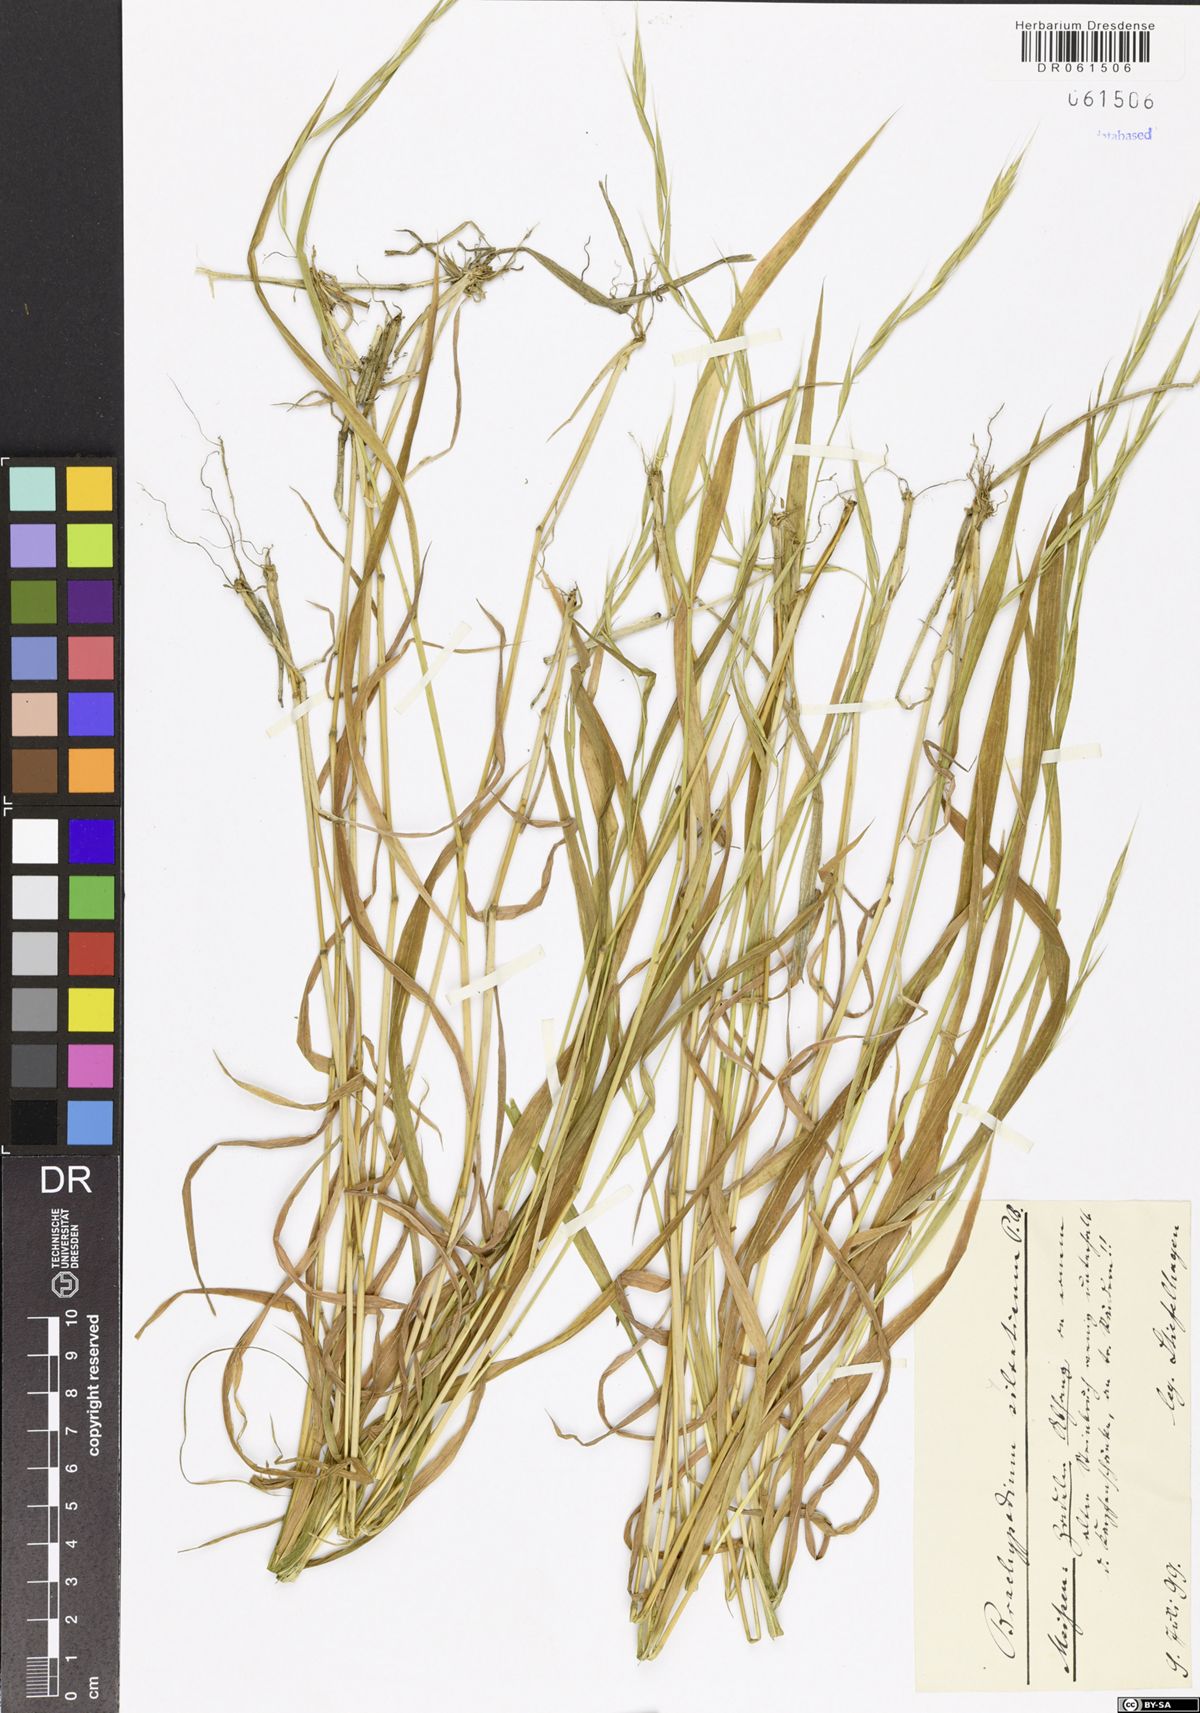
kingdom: Plantae
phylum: Tracheophyta
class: Liliopsida
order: Poales
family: Poaceae
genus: Brachypodium
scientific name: Brachypodium sylvaticum
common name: False-brome
